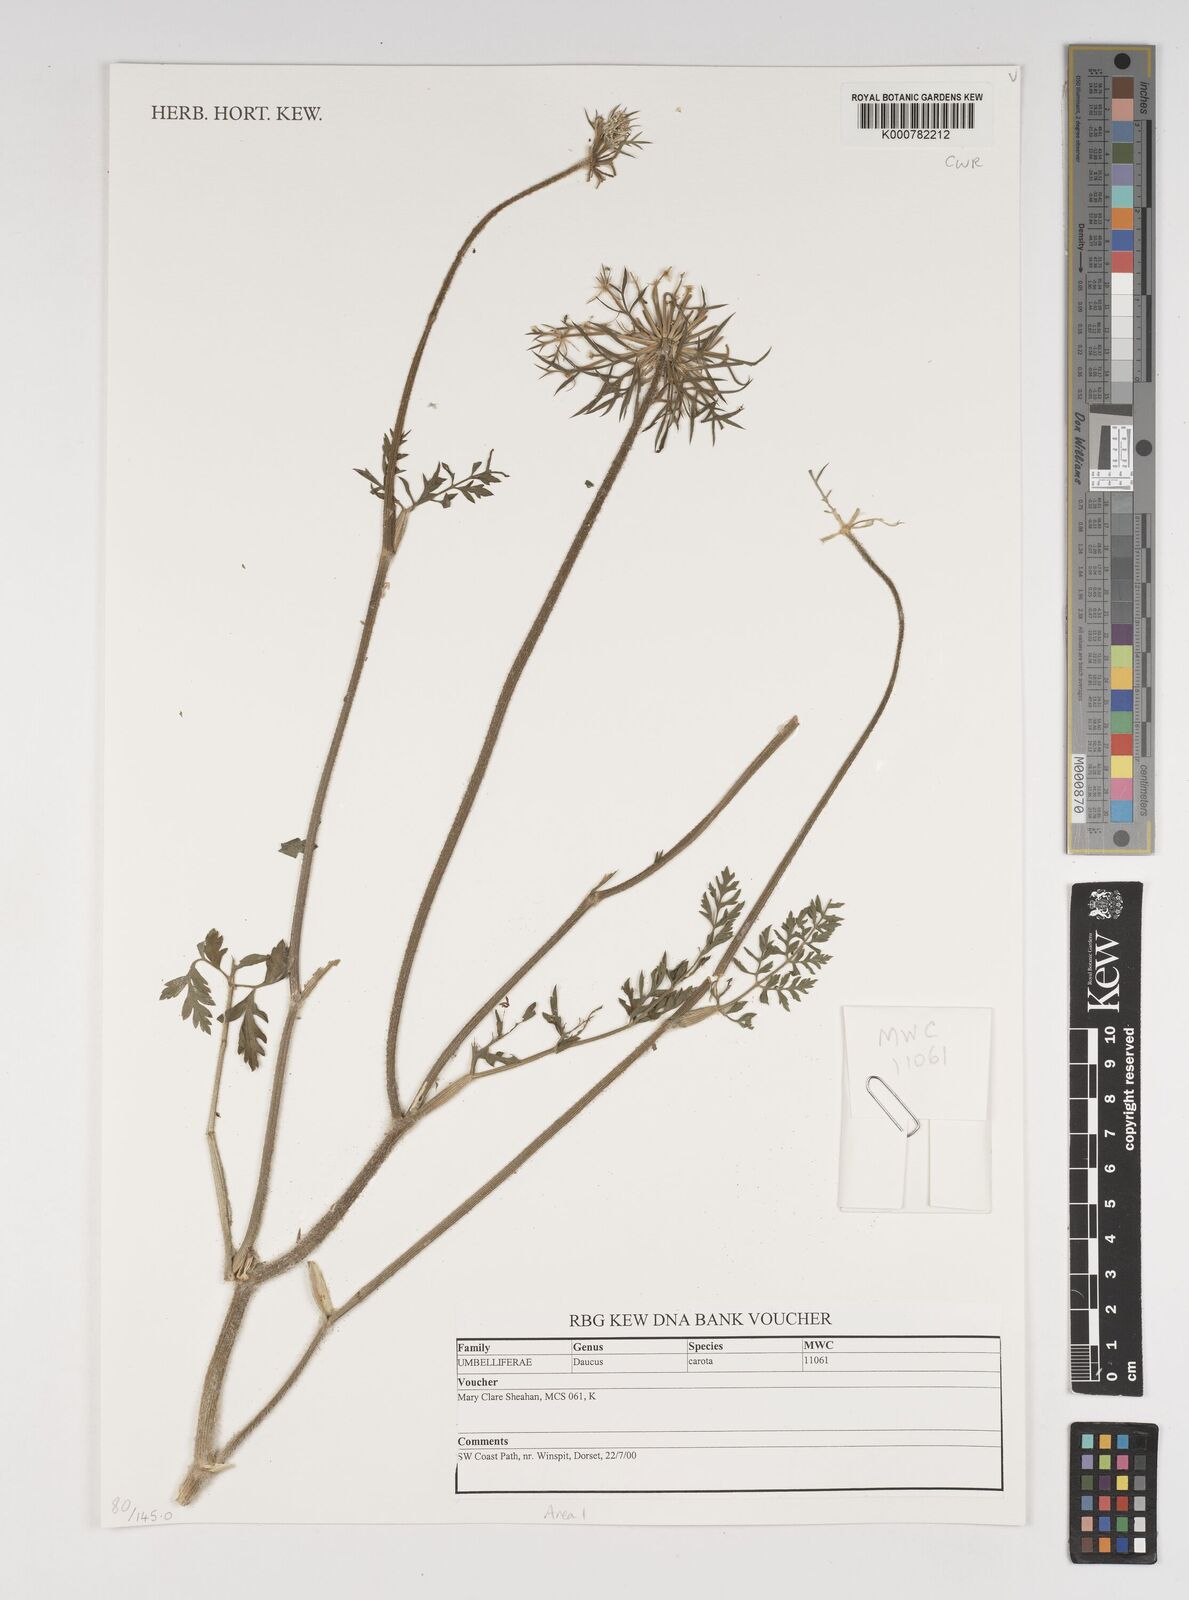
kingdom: Plantae
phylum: Tracheophyta
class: Magnoliopsida
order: Apiales
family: Apiaceae
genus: Daucus
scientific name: Daucus carota
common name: Wild carrot
